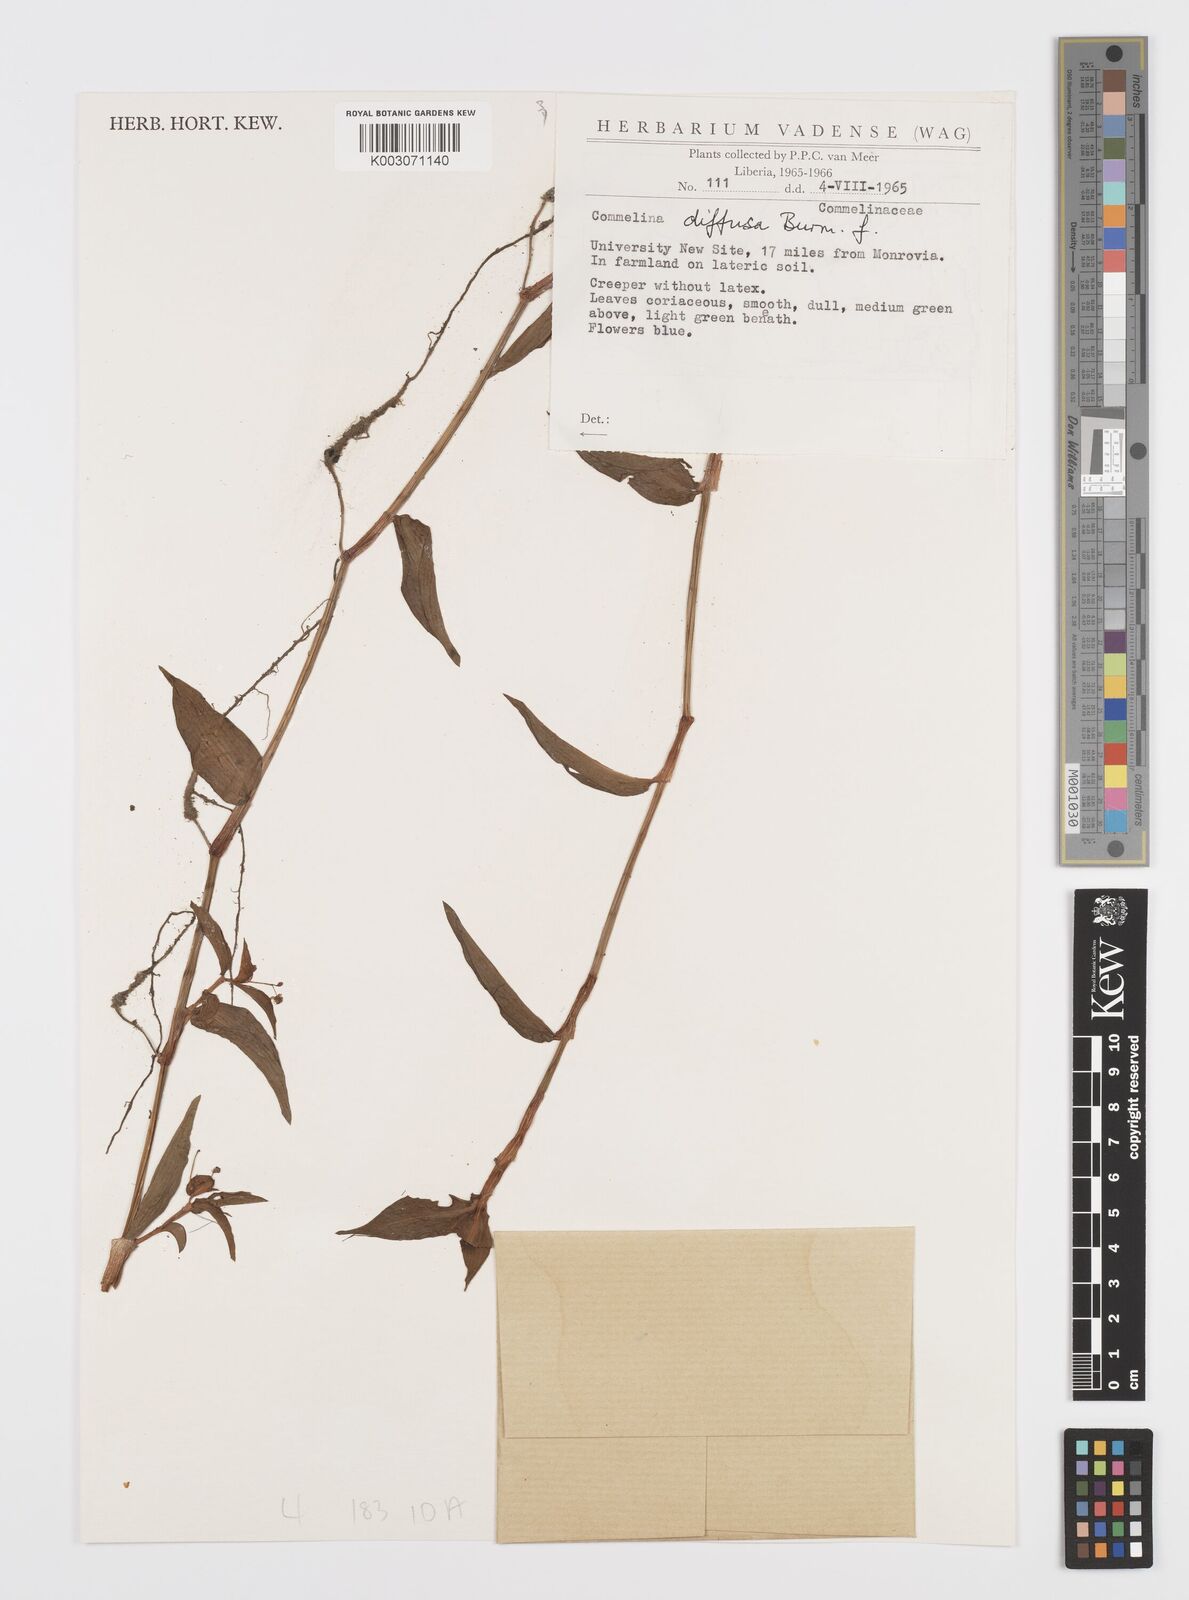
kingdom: Plantae
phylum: Tracheophyta
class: Liliopsida
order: Commelinales
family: Commelinaceae
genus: Commelina
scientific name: Commelina diffusa
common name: Climbing dayflower
